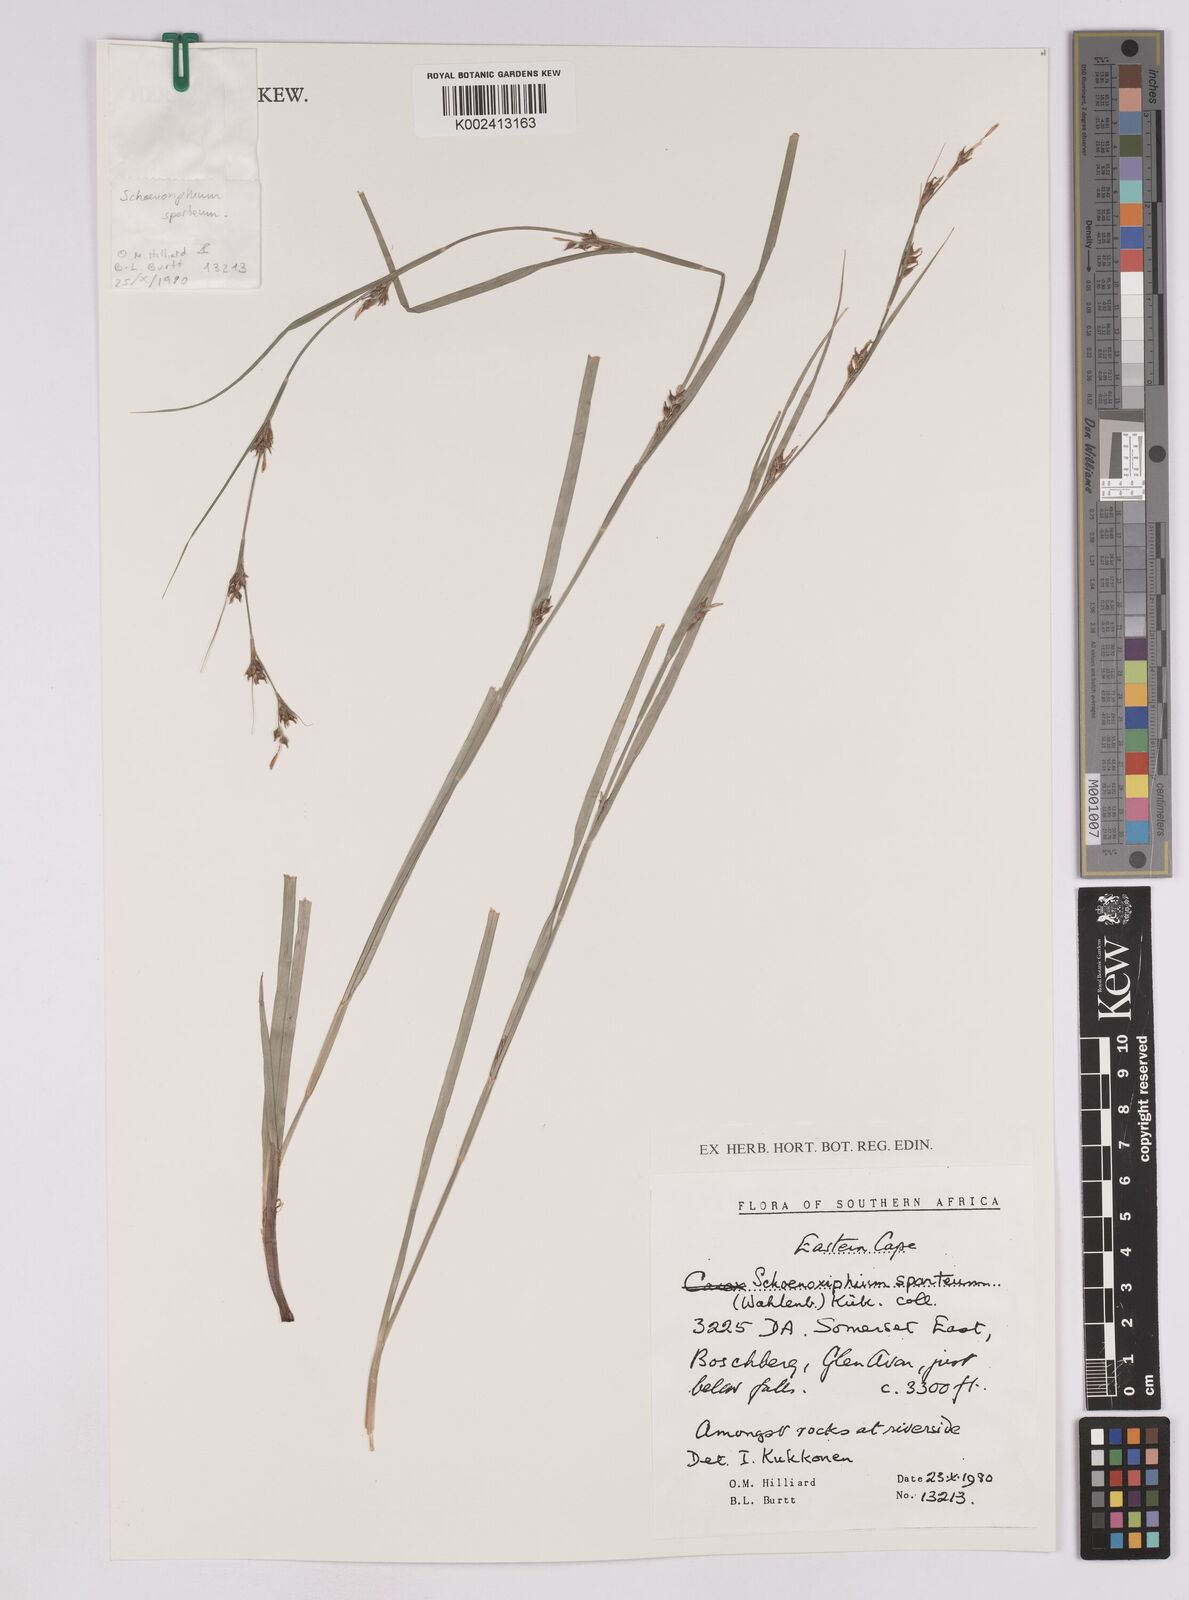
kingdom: Plantae
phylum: Tracheophyta
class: Liliopsida
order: Poales
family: Cyperaceae
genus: Carex
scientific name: Carex spartea
